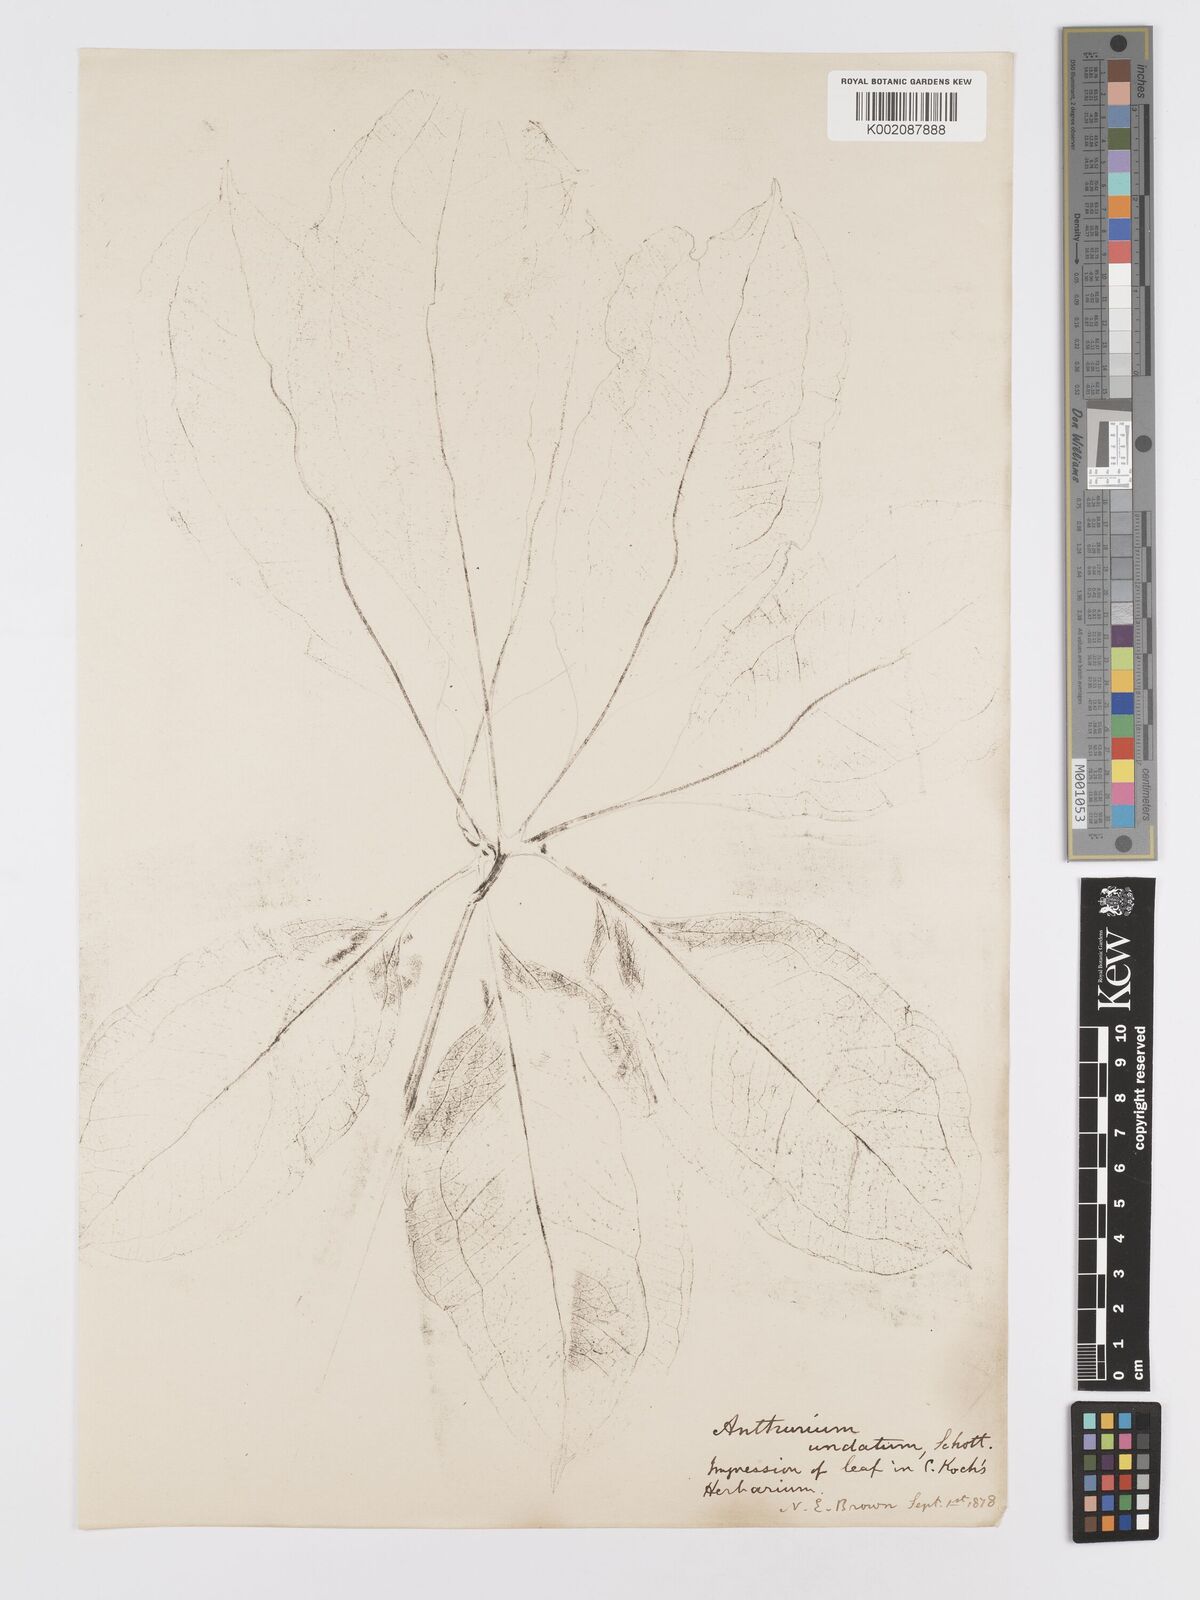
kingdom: Plantae
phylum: Tracheophyta
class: Liliopsida
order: Alismatales
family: Araceae
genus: Anthurium
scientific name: Anthurium pentaphyllum
